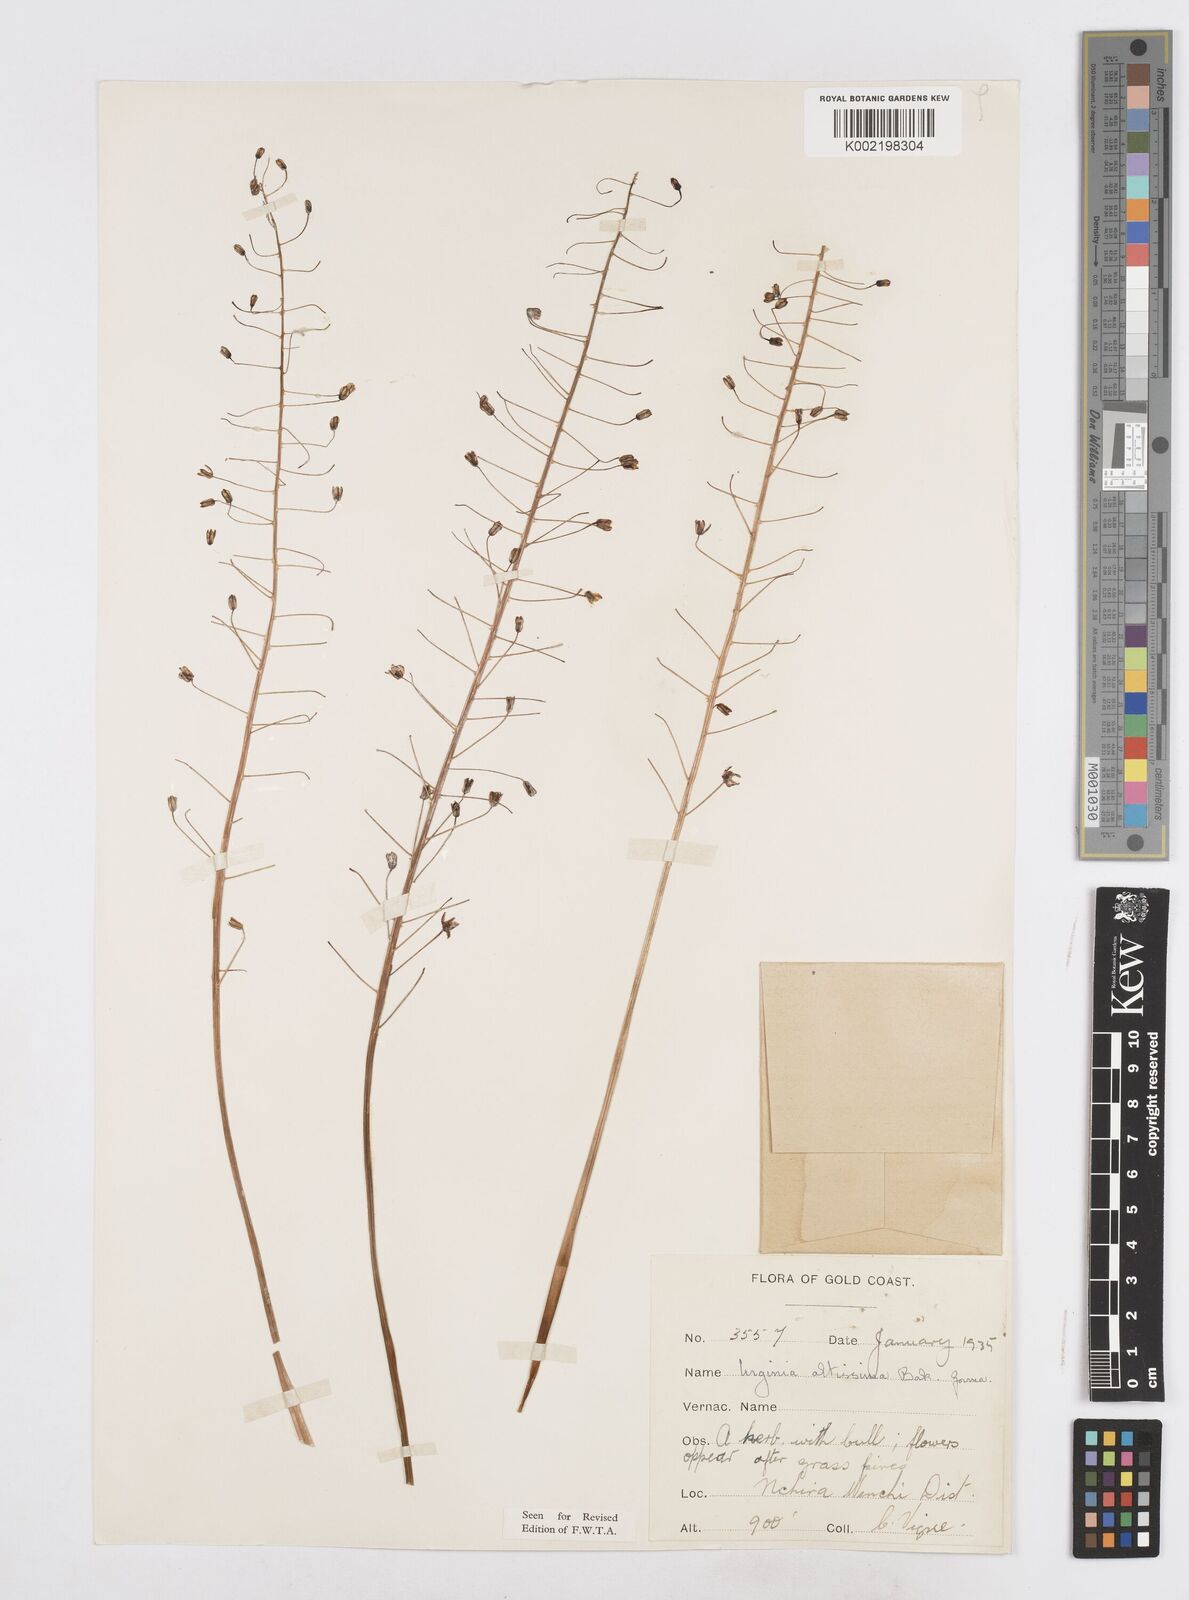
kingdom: Plantae
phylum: Tracheophyta
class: Liliopsida
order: Asparagales
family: Asparagaceae
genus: Drimia
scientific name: Drimia altissima
